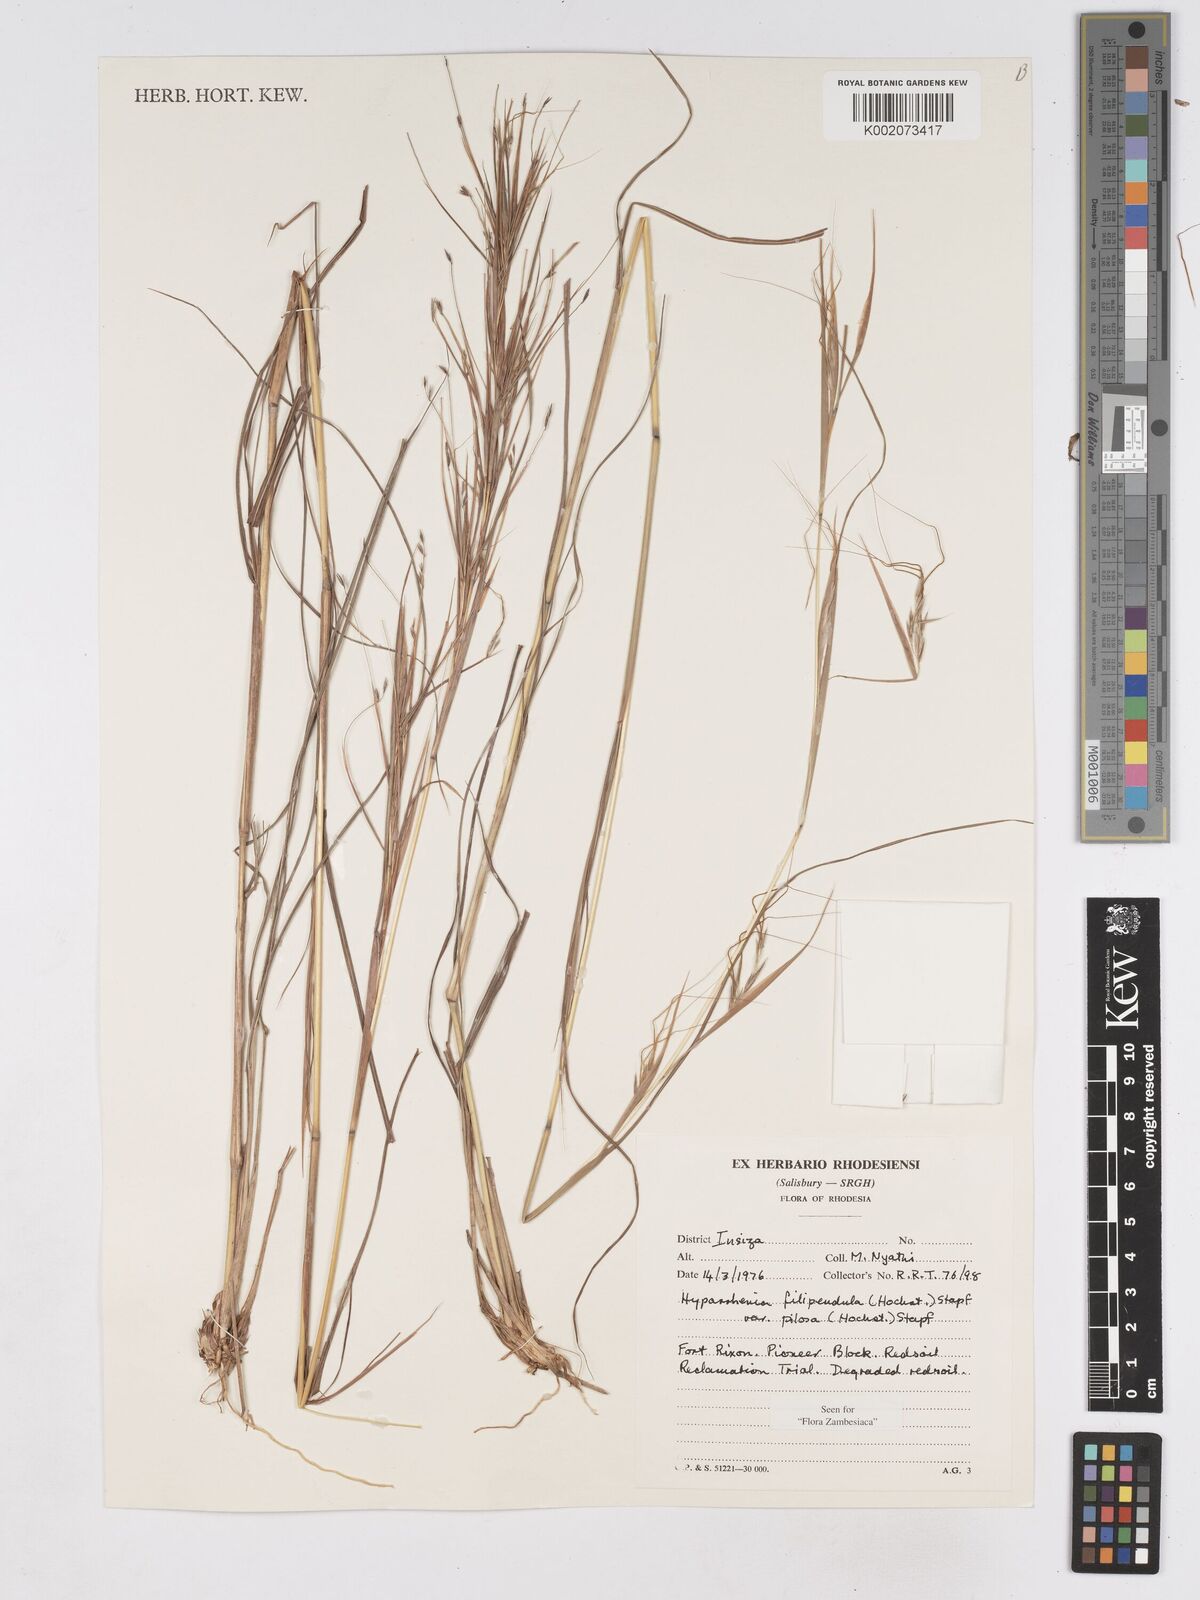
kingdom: Plantae
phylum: Tracheophyta
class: Liliopsida
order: Poales
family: Poaceae
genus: Hyparrhenia
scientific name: Hyparrhenia filipendula
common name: Tambookie grass
